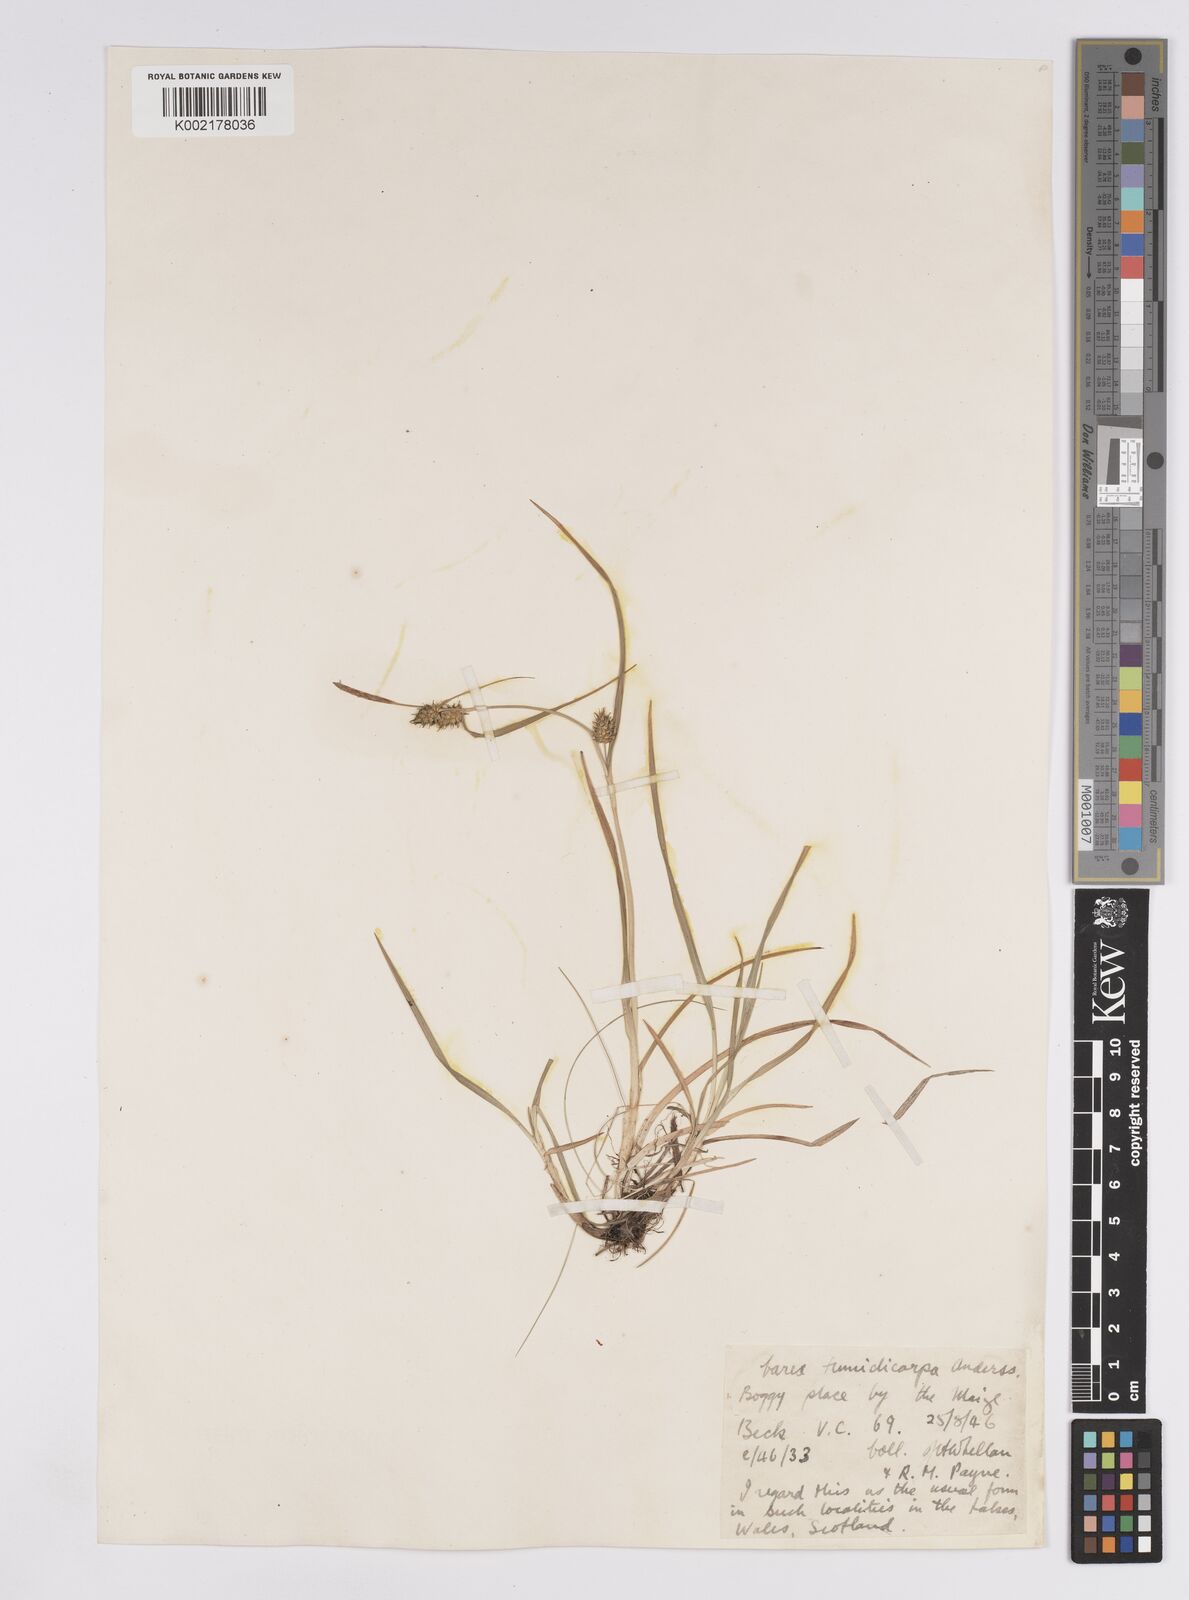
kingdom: Plantae
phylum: Tracheophyta
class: Liliopsida
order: Poales
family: Cyperaceae
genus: Carex
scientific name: Carex demissa
